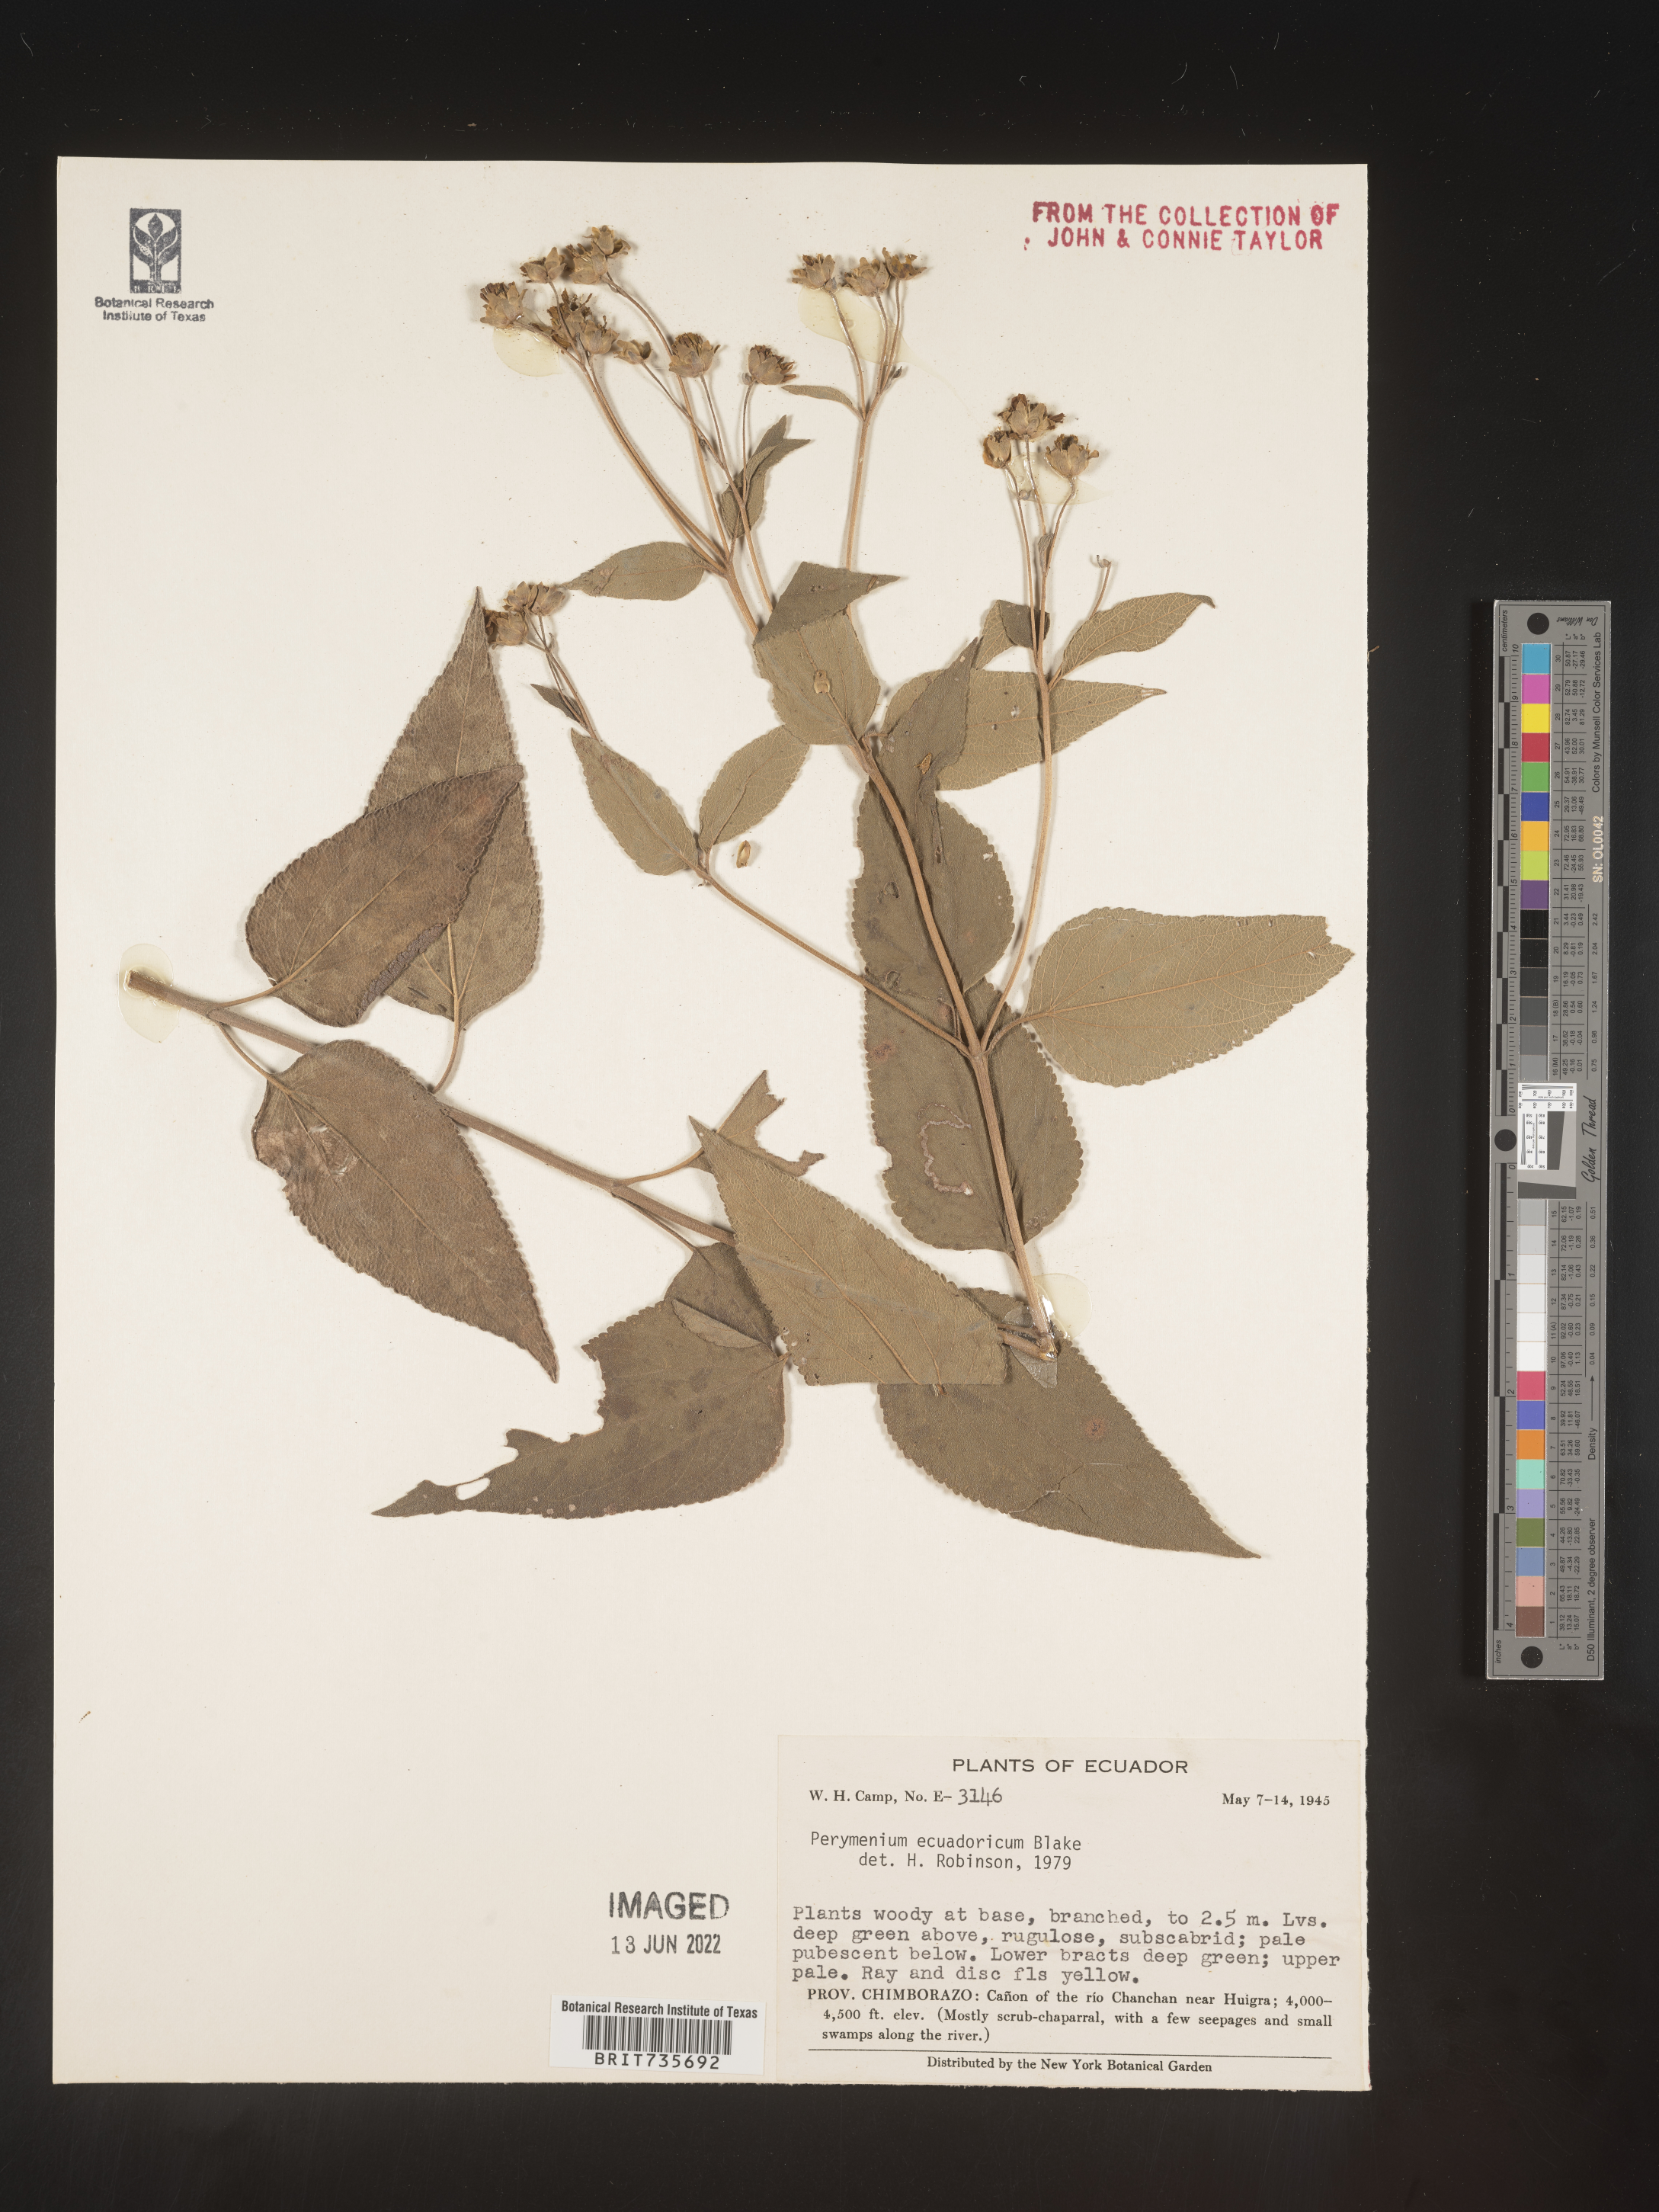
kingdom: Plantae
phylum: Tracheophyta
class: Magnoliopsida
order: Asterales
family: Asteraceae
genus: Perymenium
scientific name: Perymenium
